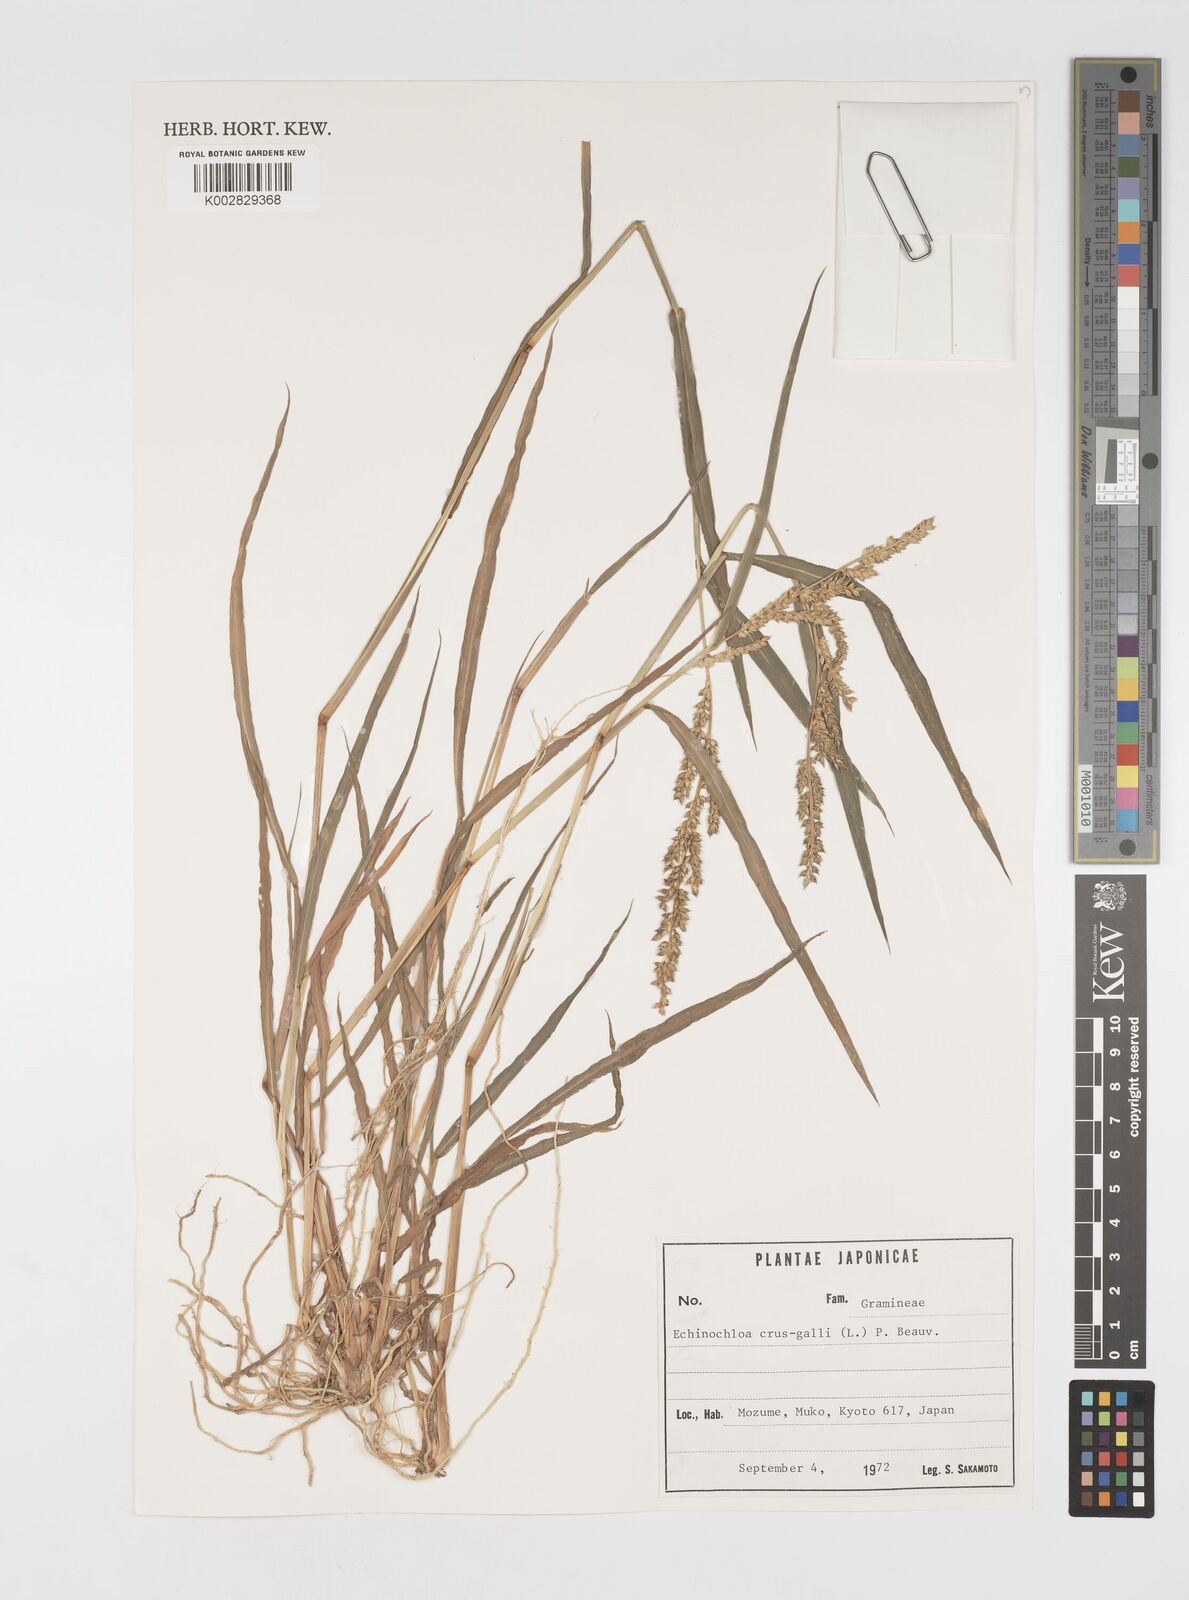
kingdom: Plantae
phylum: Tracheophyta
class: Liliopsida
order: Poales
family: Poaceae
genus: Echinochloa
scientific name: Echinochloa crus-galli
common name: Cockspur
